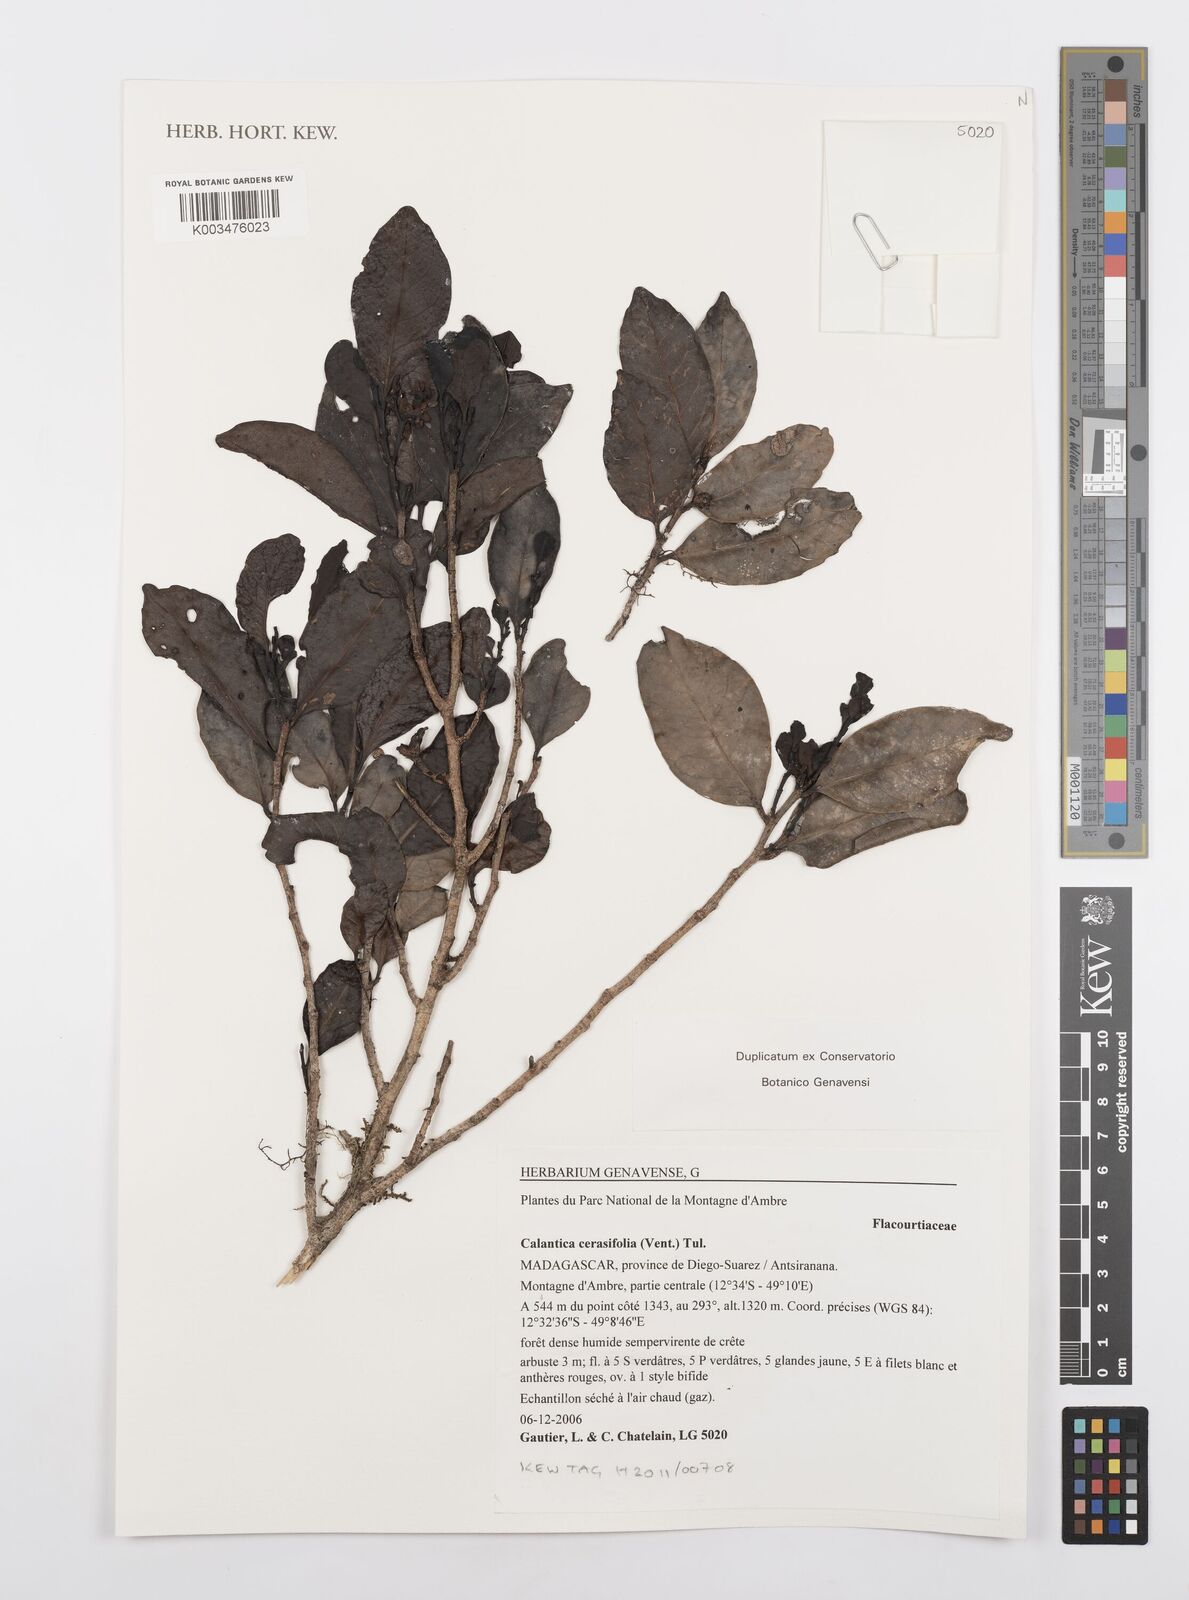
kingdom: Plantae
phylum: Tracheophyta
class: Magnoliopsida
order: Malpighiales
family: Salicaceae
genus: Calantica
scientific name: Calantica cerasifolia
